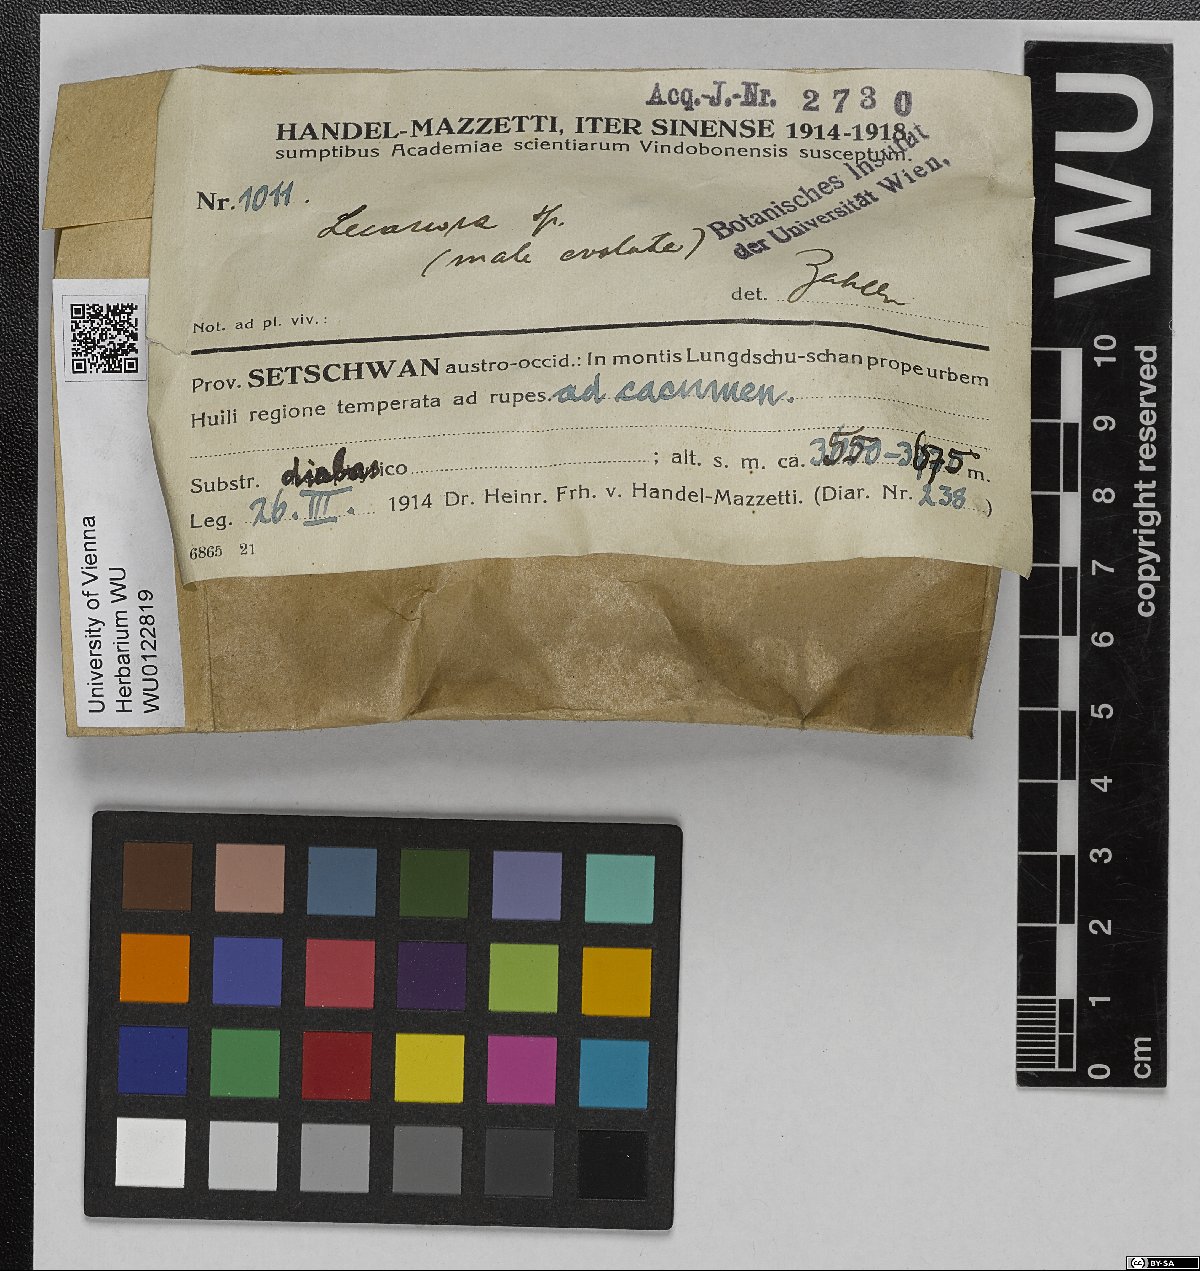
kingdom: Fungi
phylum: Ascomycota
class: Lecanoromycetes
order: Lecanorales
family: Lecanoraceae
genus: Lecanora
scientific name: Lecanora
